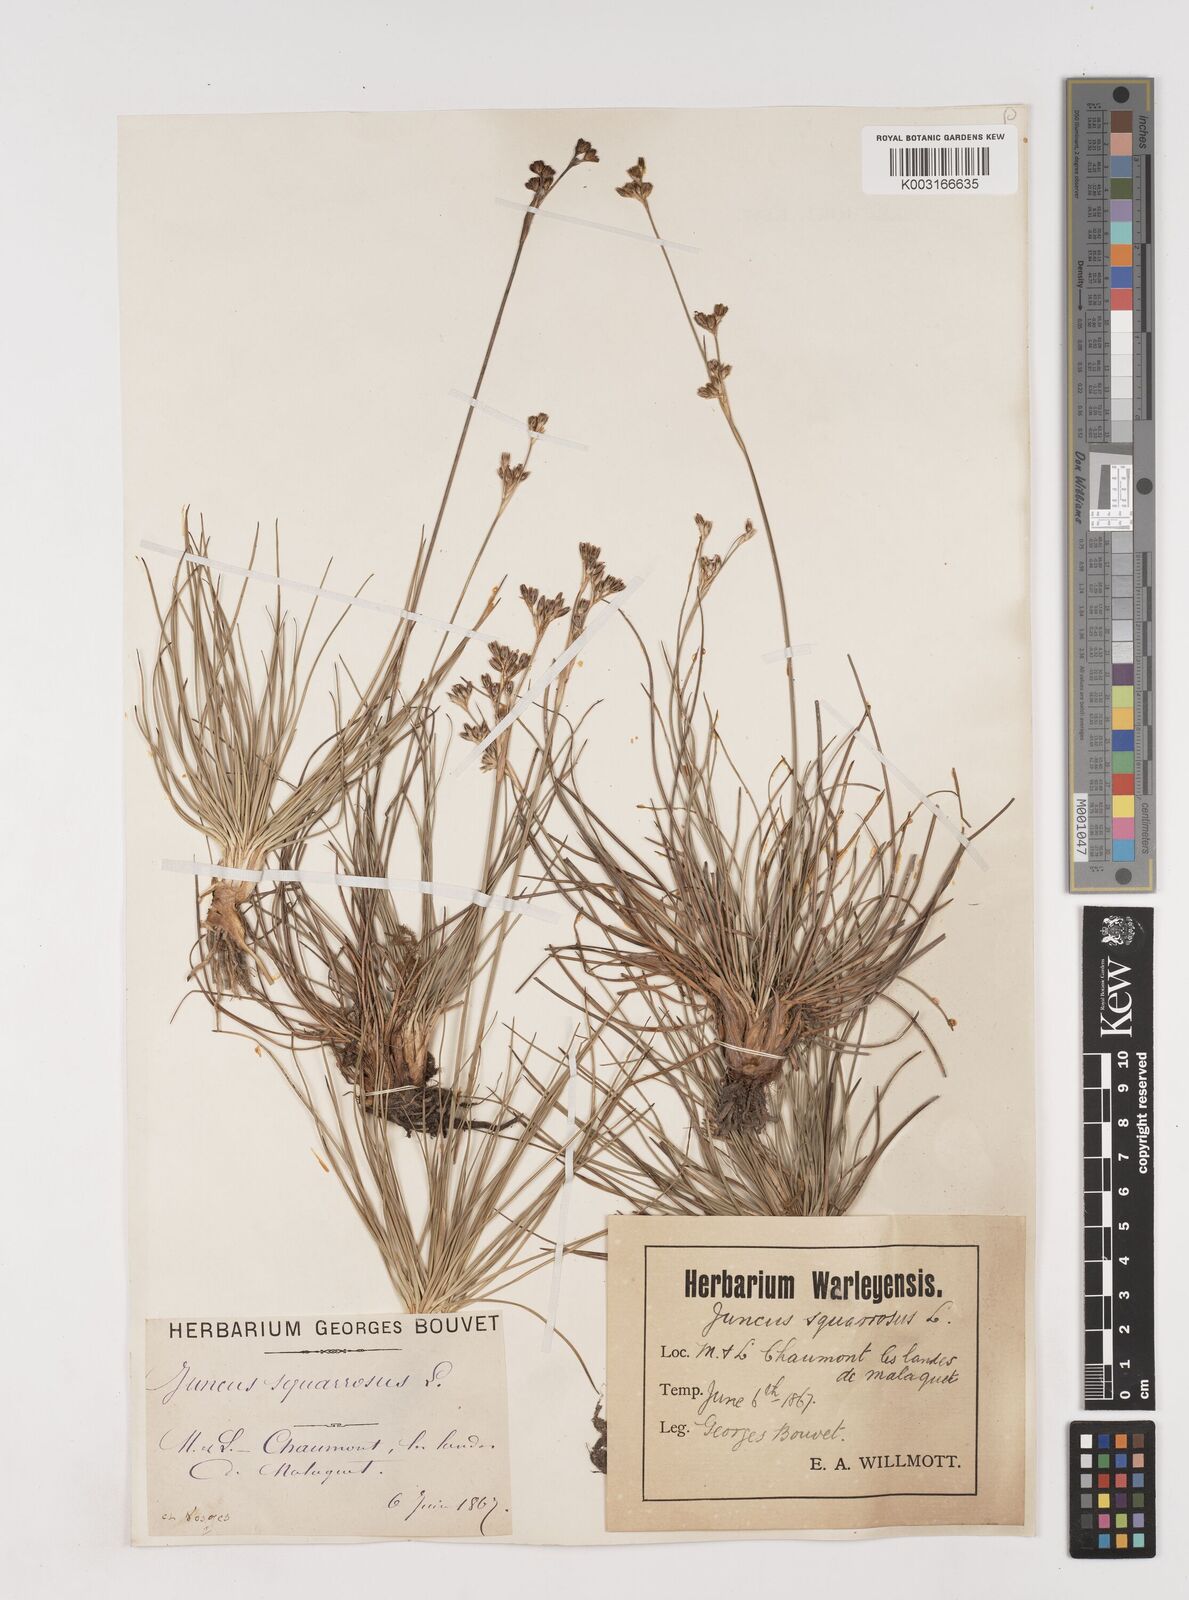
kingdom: Plantae
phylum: Tracheophyta
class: Liliopsida
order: Poales
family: Juncaceae
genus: Juncus
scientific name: Juncus squarrosus
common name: Heath rush
